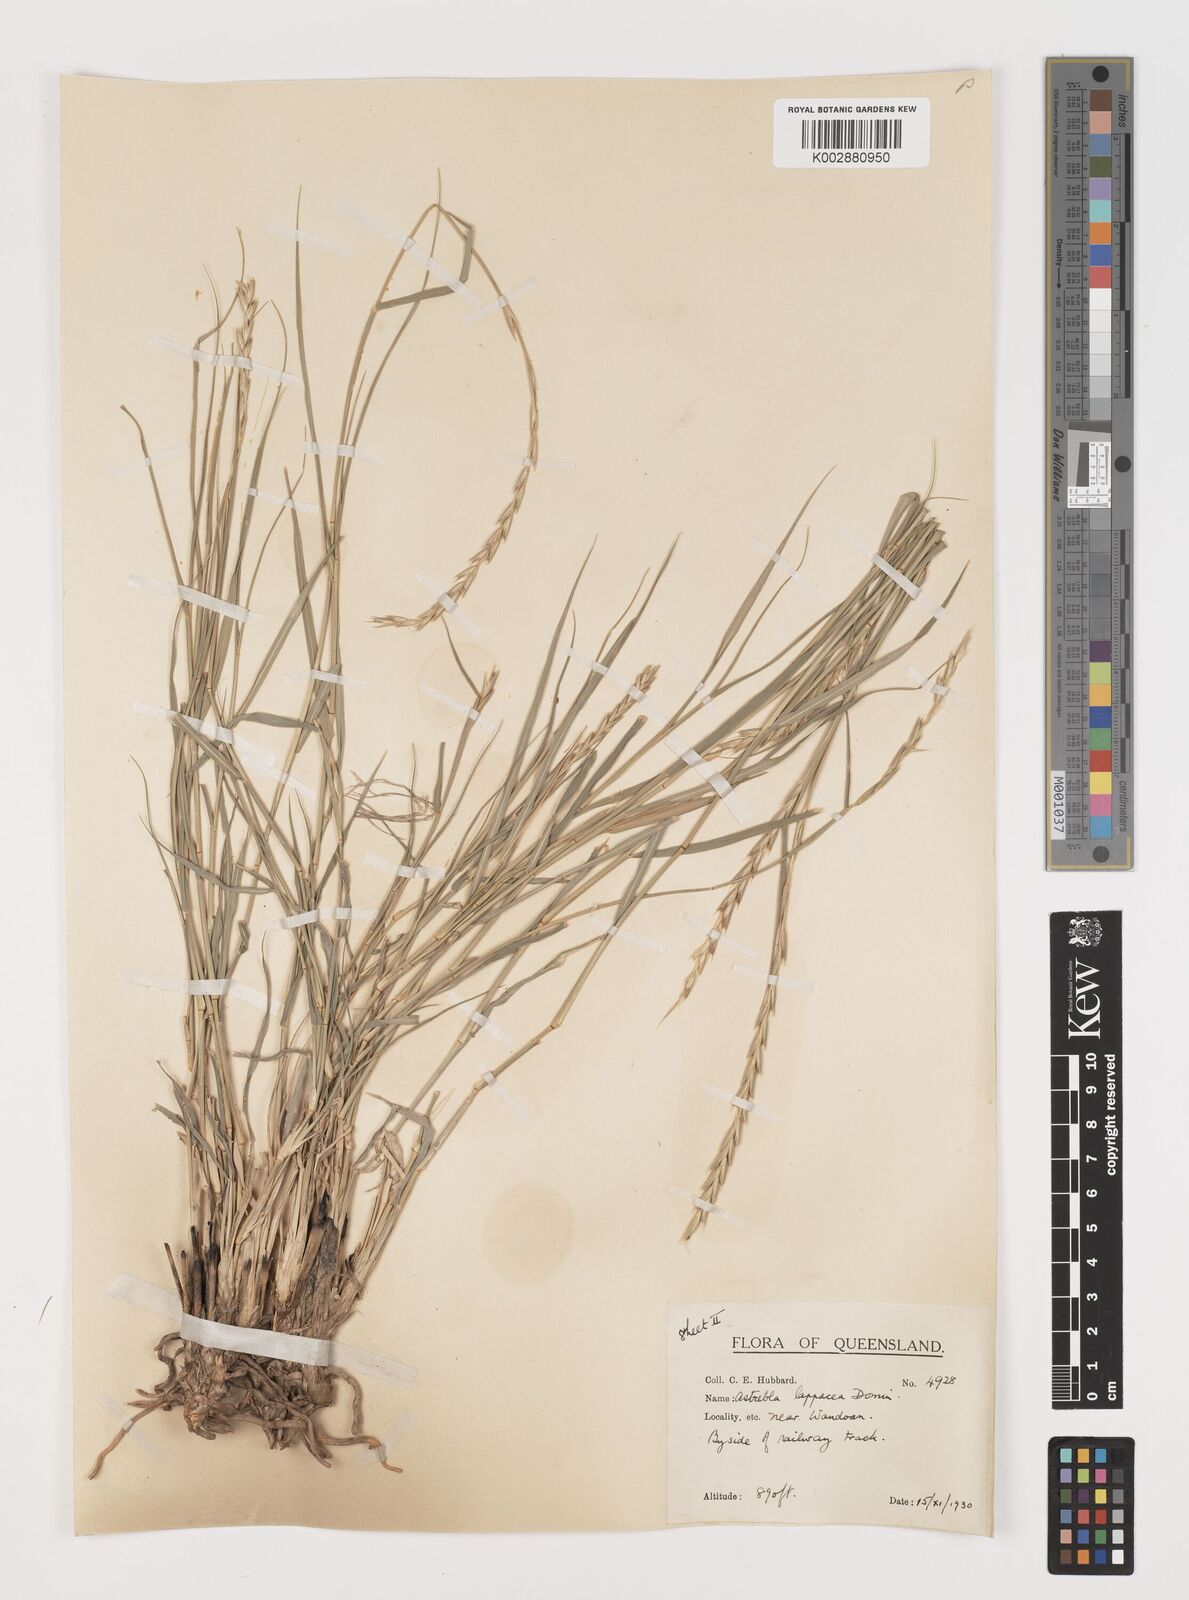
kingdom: Plantae
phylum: Tracheophyta
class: Liliopsida
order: Poales
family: Poaceae
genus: Astrebla
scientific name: Astrebla lappacea
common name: Curly mitchell grass
